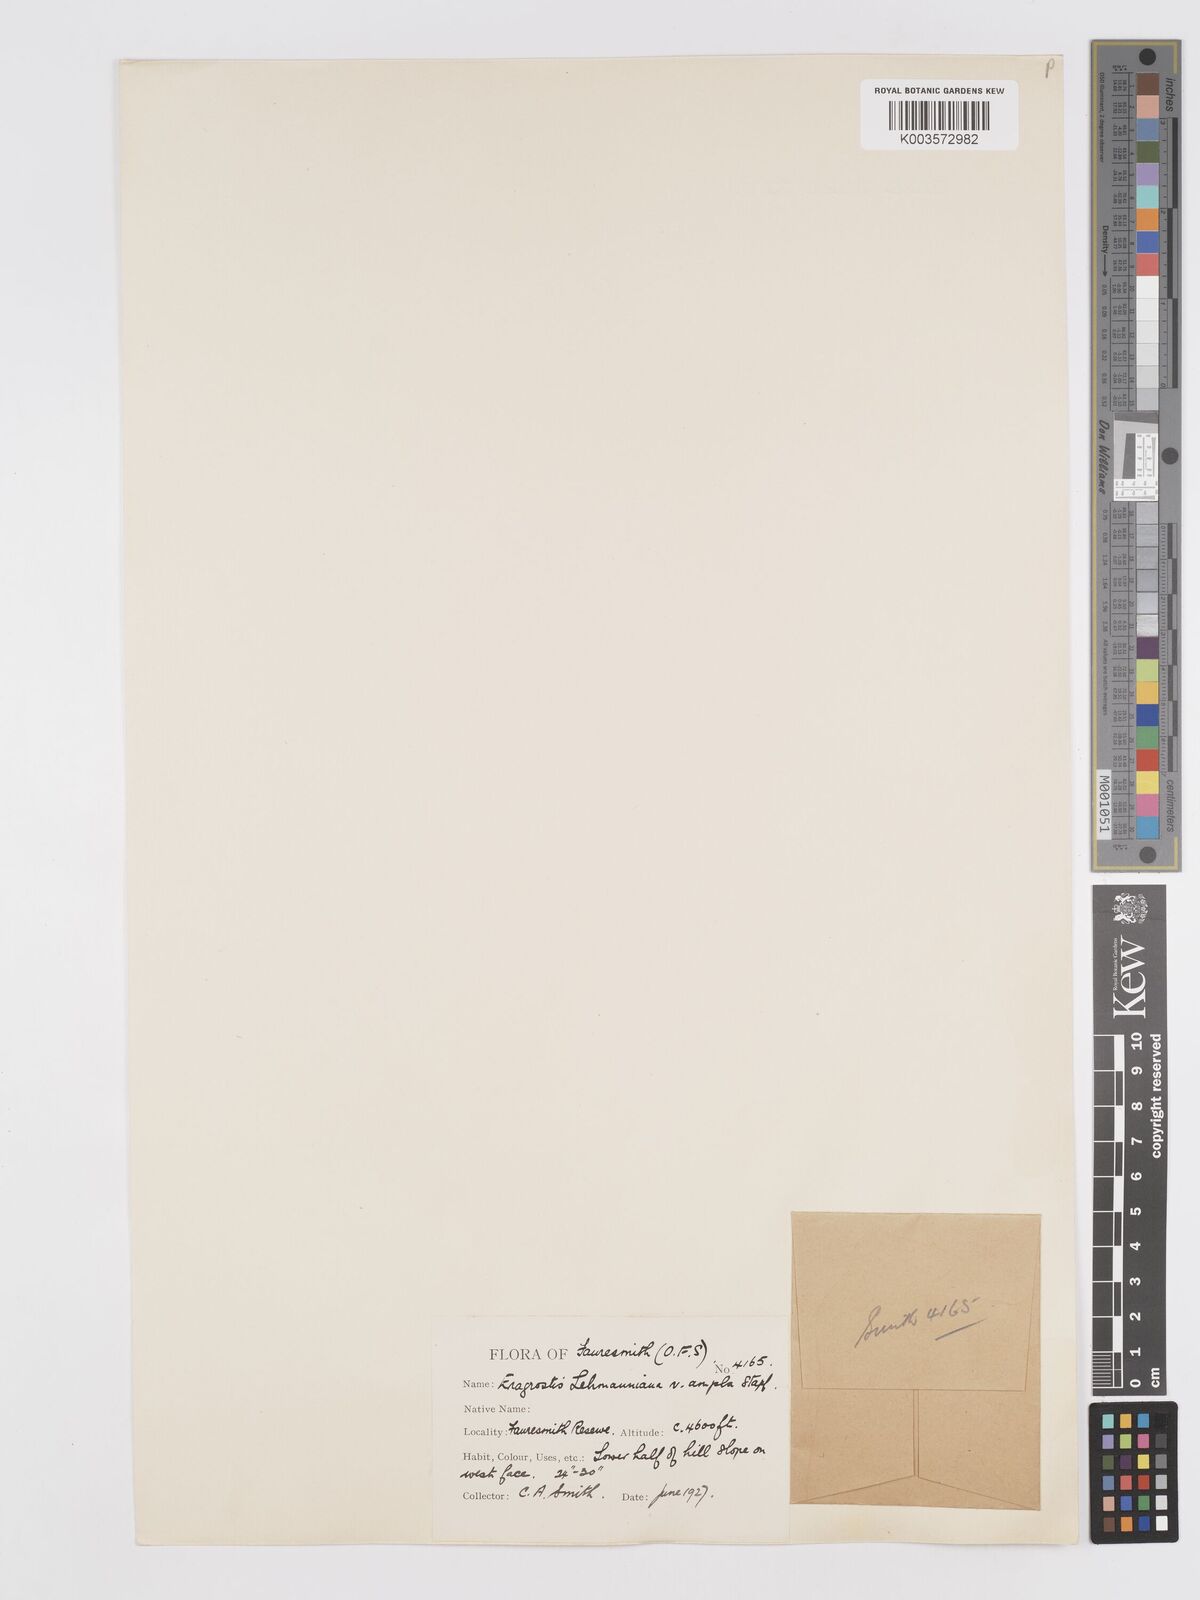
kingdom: Plantae
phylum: Tracheophyta
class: Liliopsida
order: Poales
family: Poaceae
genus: Eragrostis
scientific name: Eragrostis curvula
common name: African love-grass
